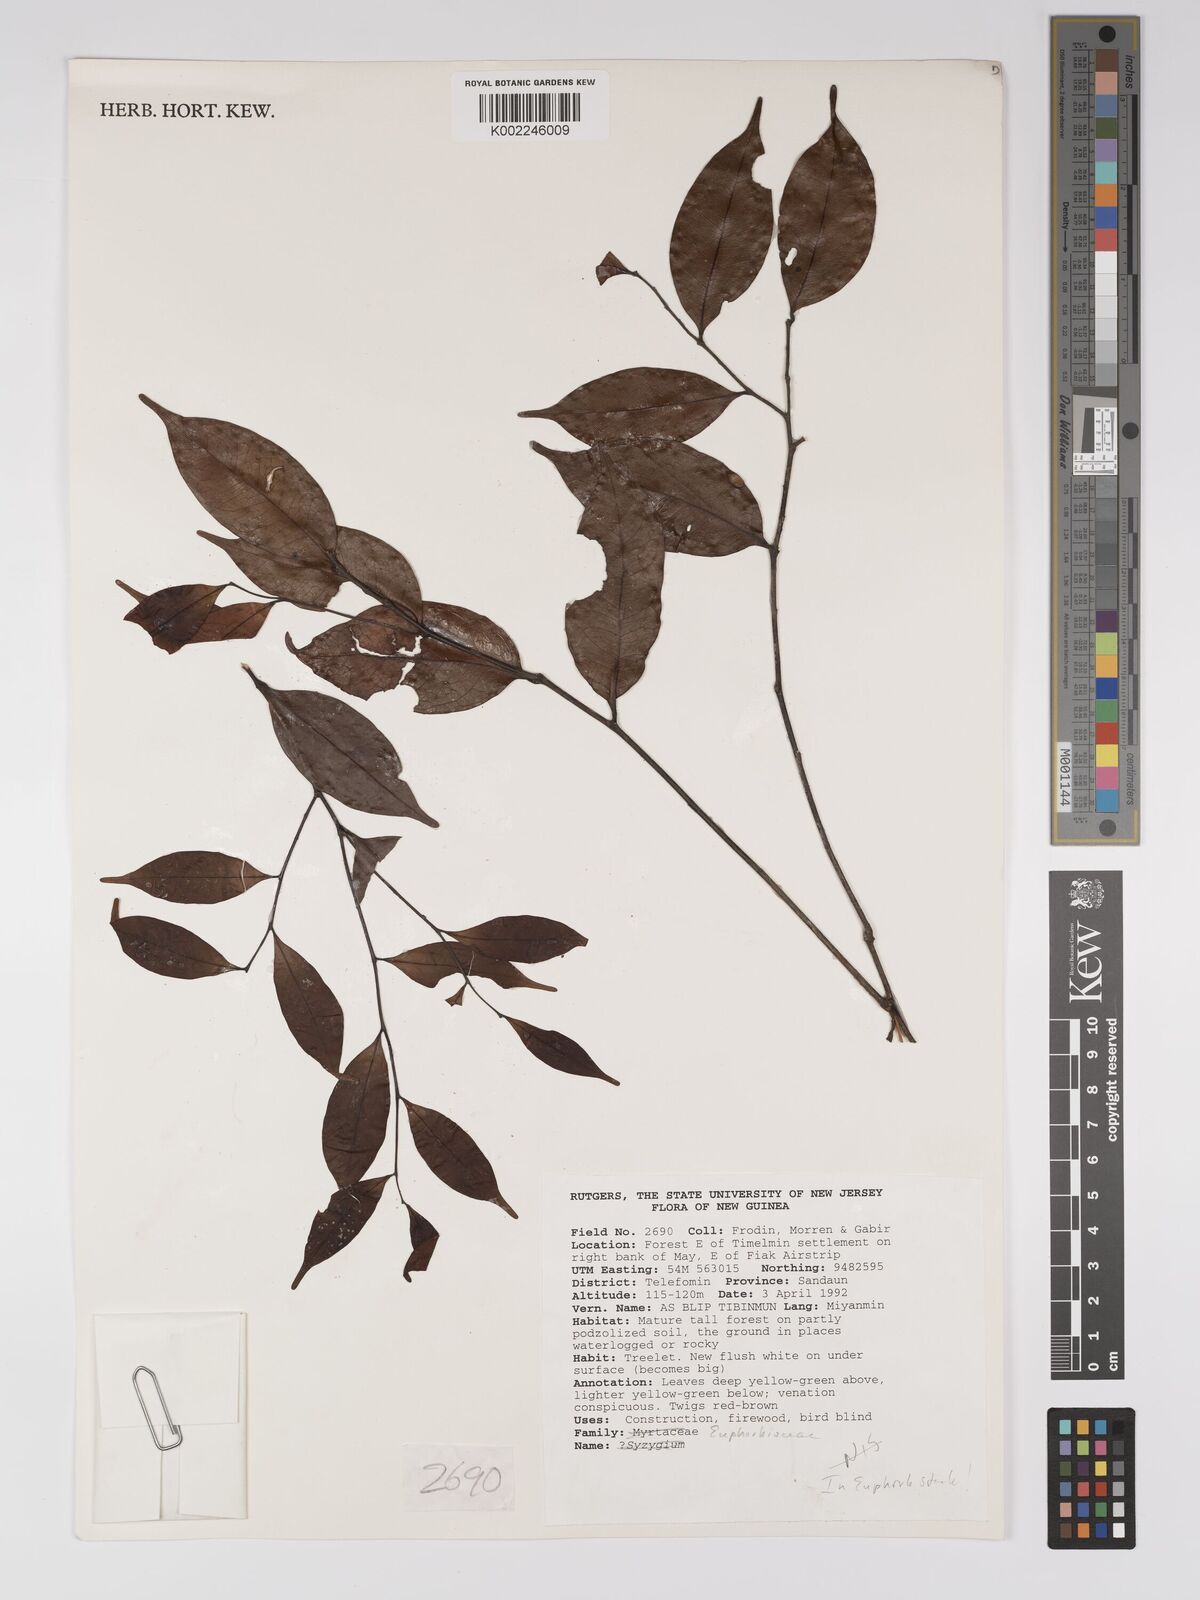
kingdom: Plantae
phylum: Tracheophyta
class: Magnoliopsida
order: Malpighiales
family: Euphorbiaceae
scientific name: Euphorbiaceae
